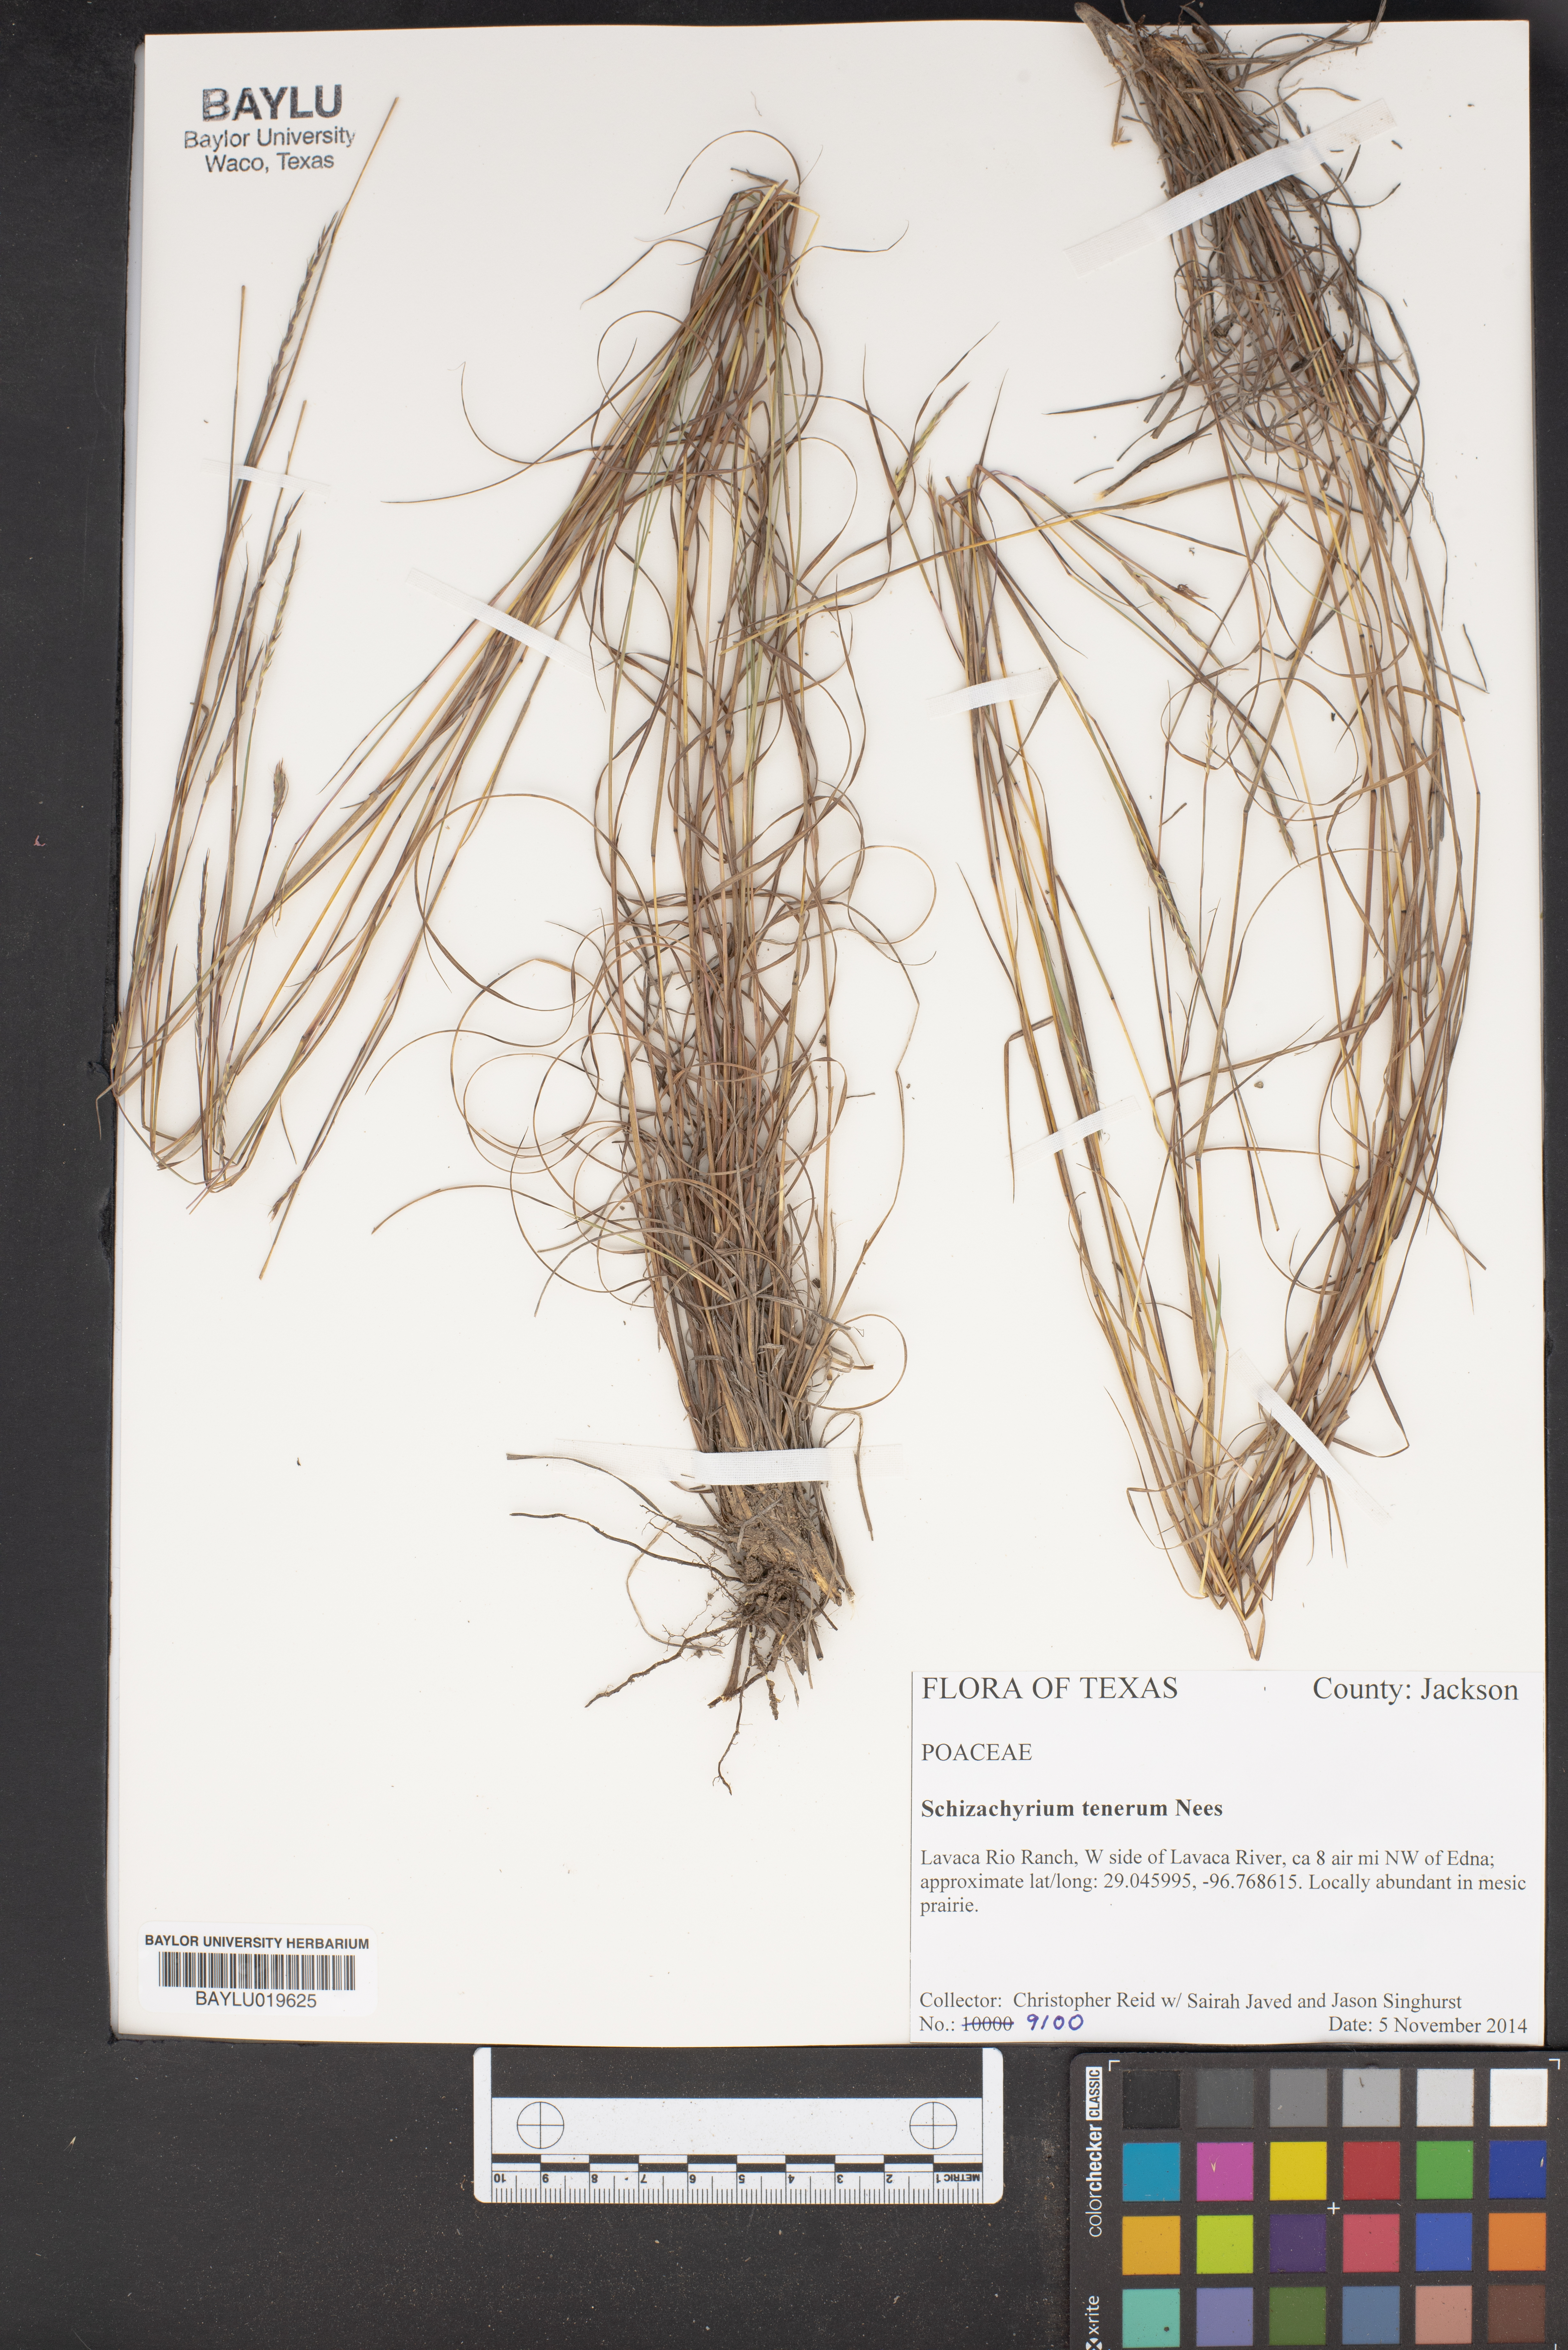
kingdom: Plantae
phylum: Tracheophyta
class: Liliopsida
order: Poales
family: Poaceae
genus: Andropogon
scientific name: Andropogon tener
